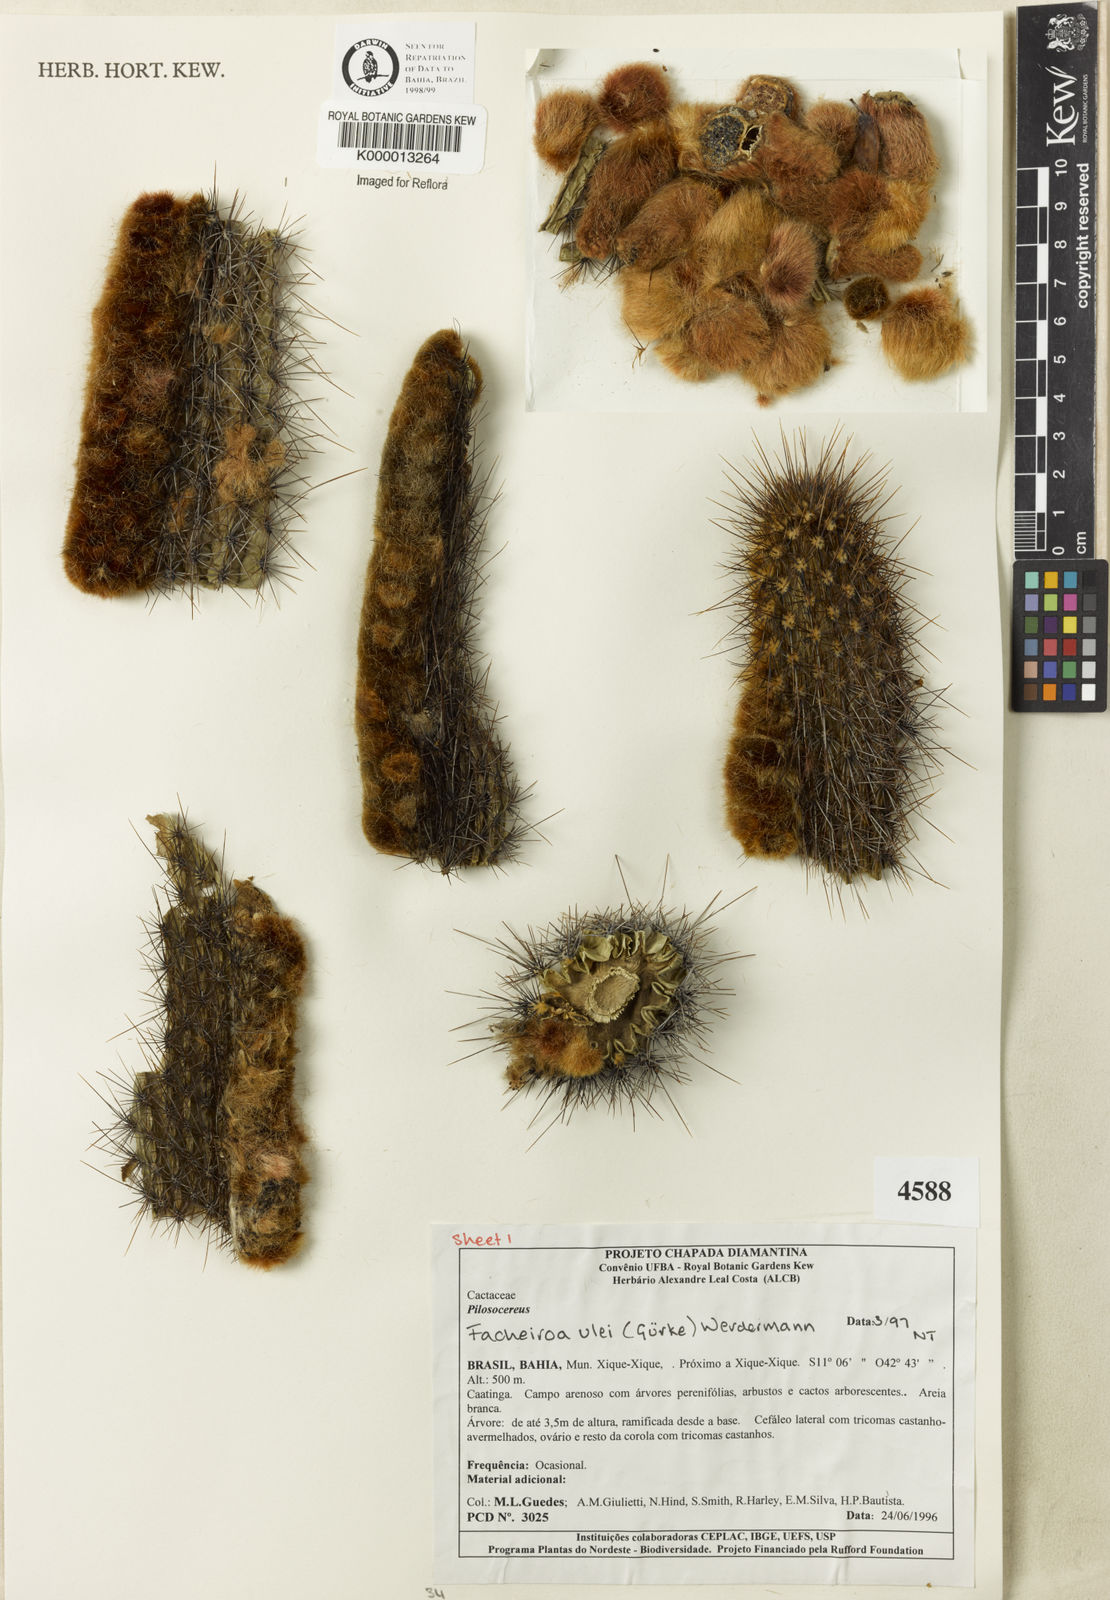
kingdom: Plantae
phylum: Tracheophyta
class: Magnoliopsida
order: Caryophyllales
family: Cactaceae
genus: Facheiroa
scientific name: Facheiroa ulei
